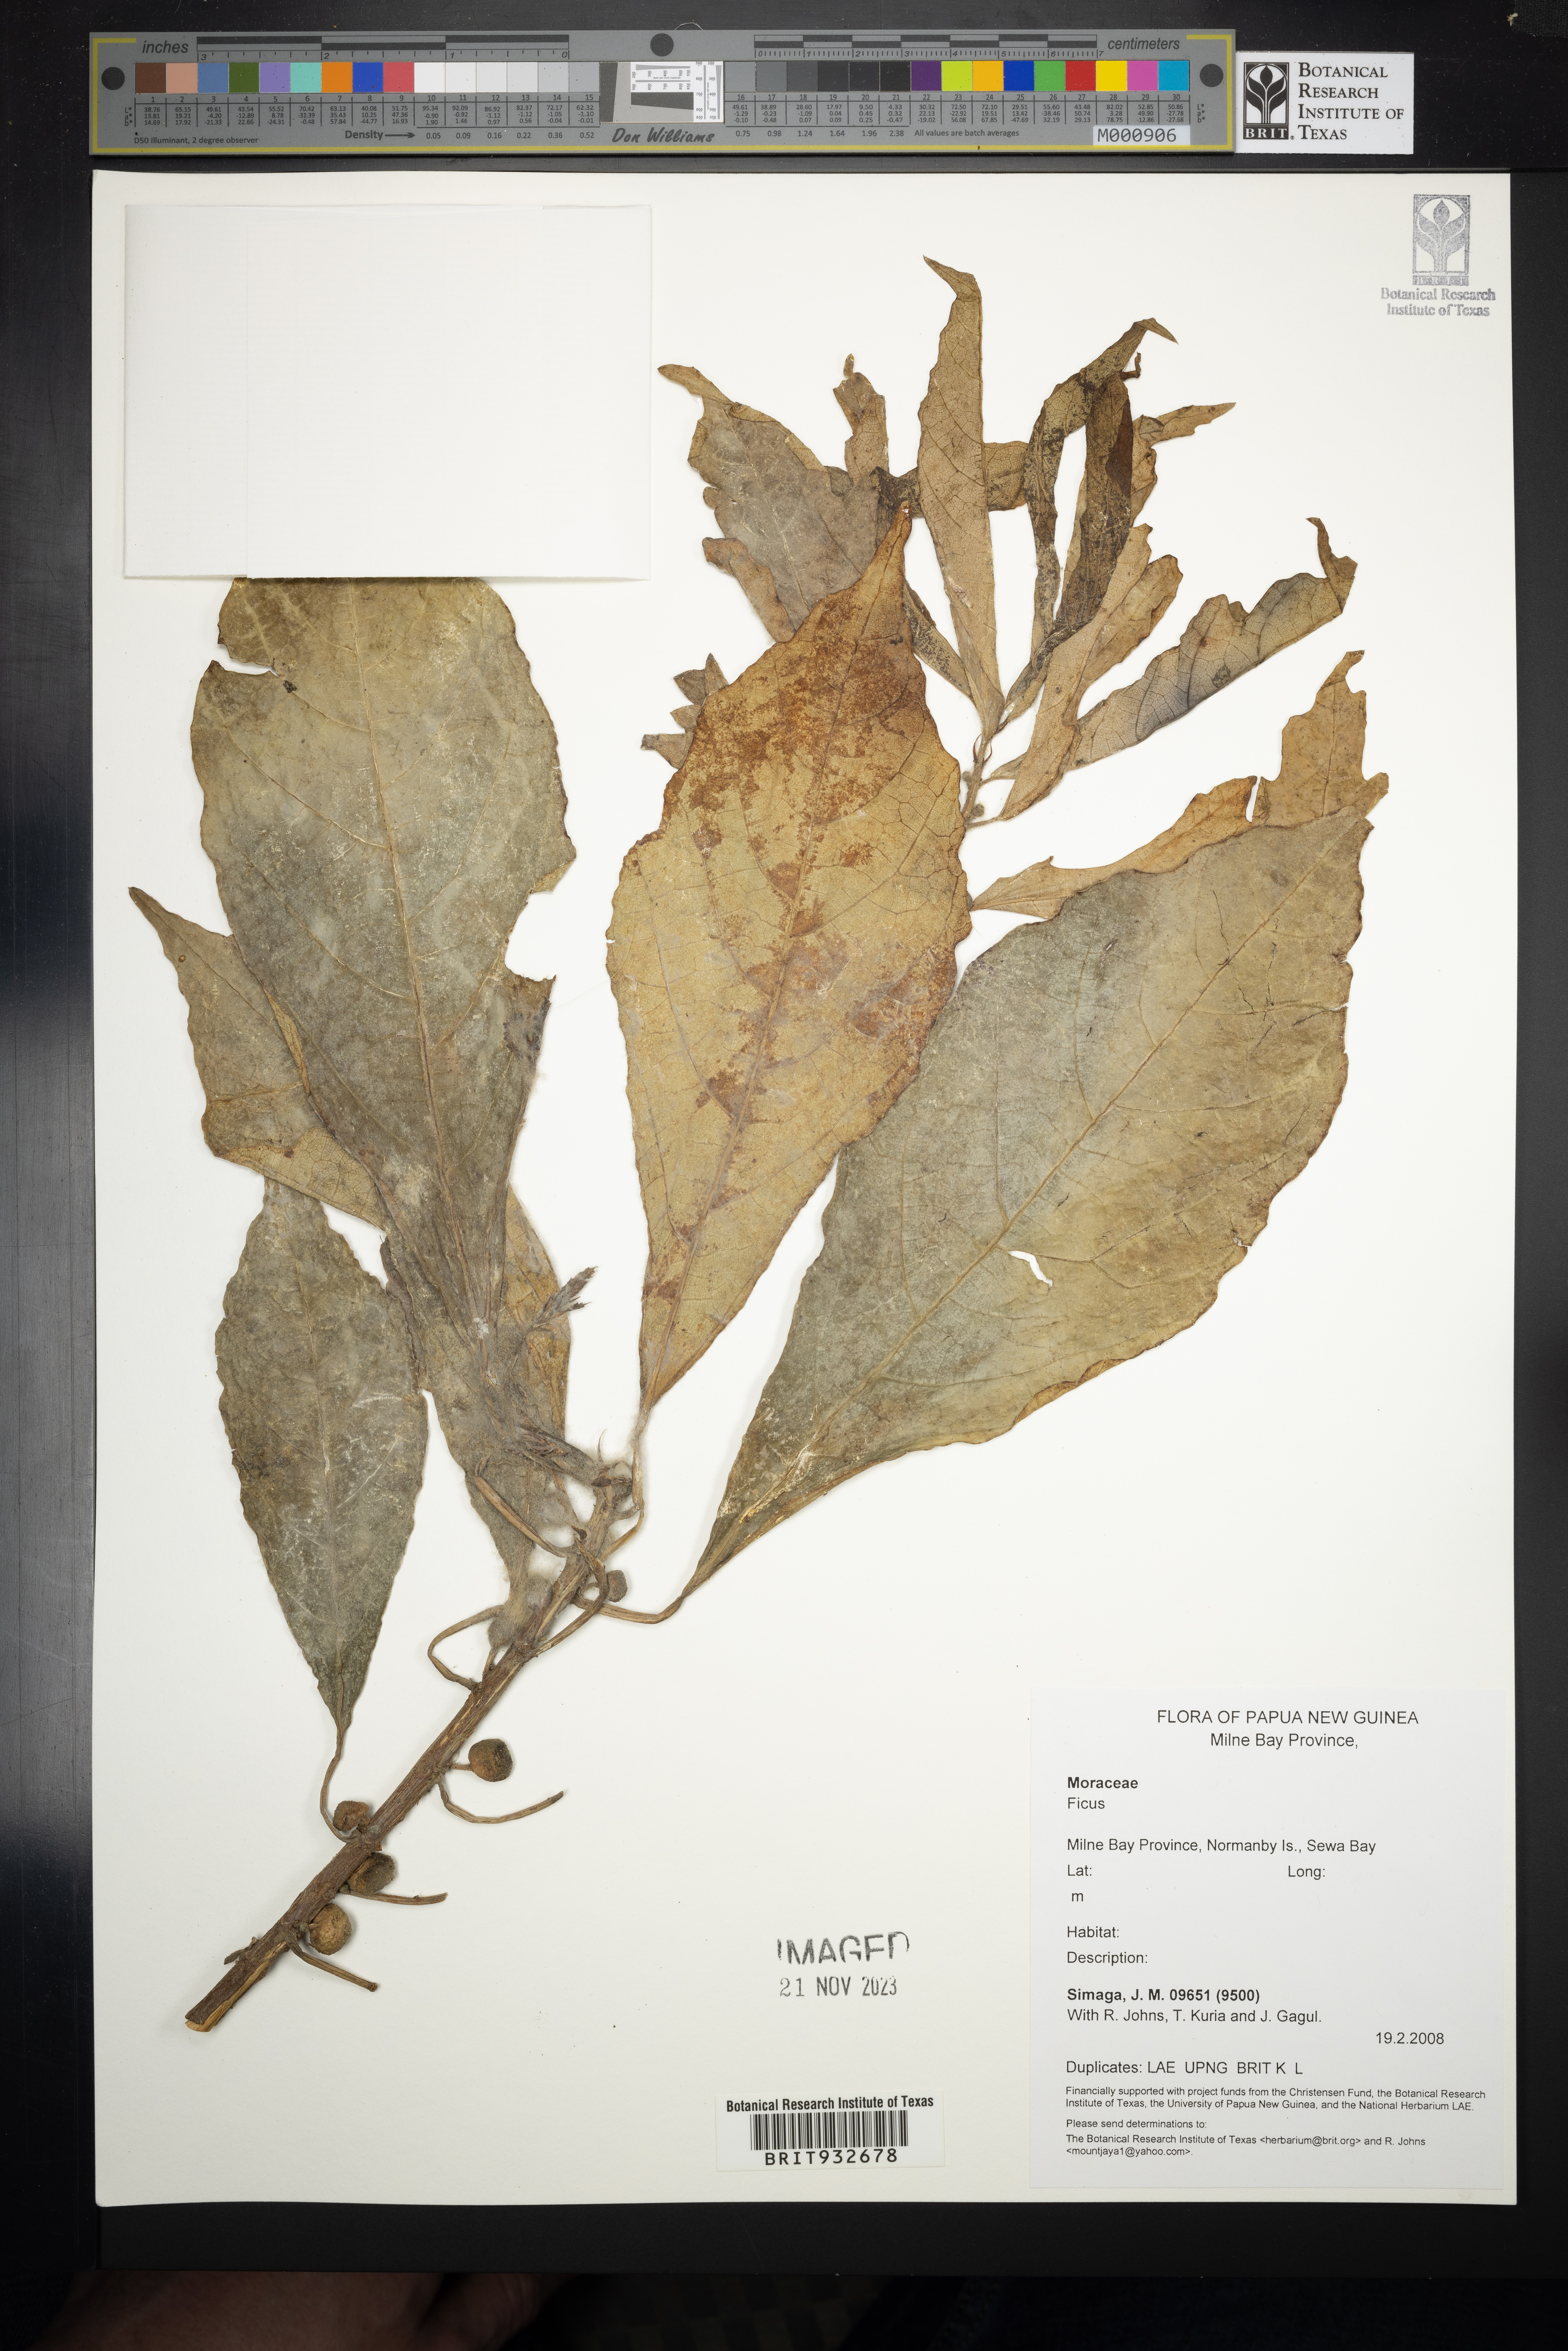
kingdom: Plantae
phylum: Tracheophyta
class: Magnoliopsida
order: Rosales
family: Moraceae
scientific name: Moraceae
